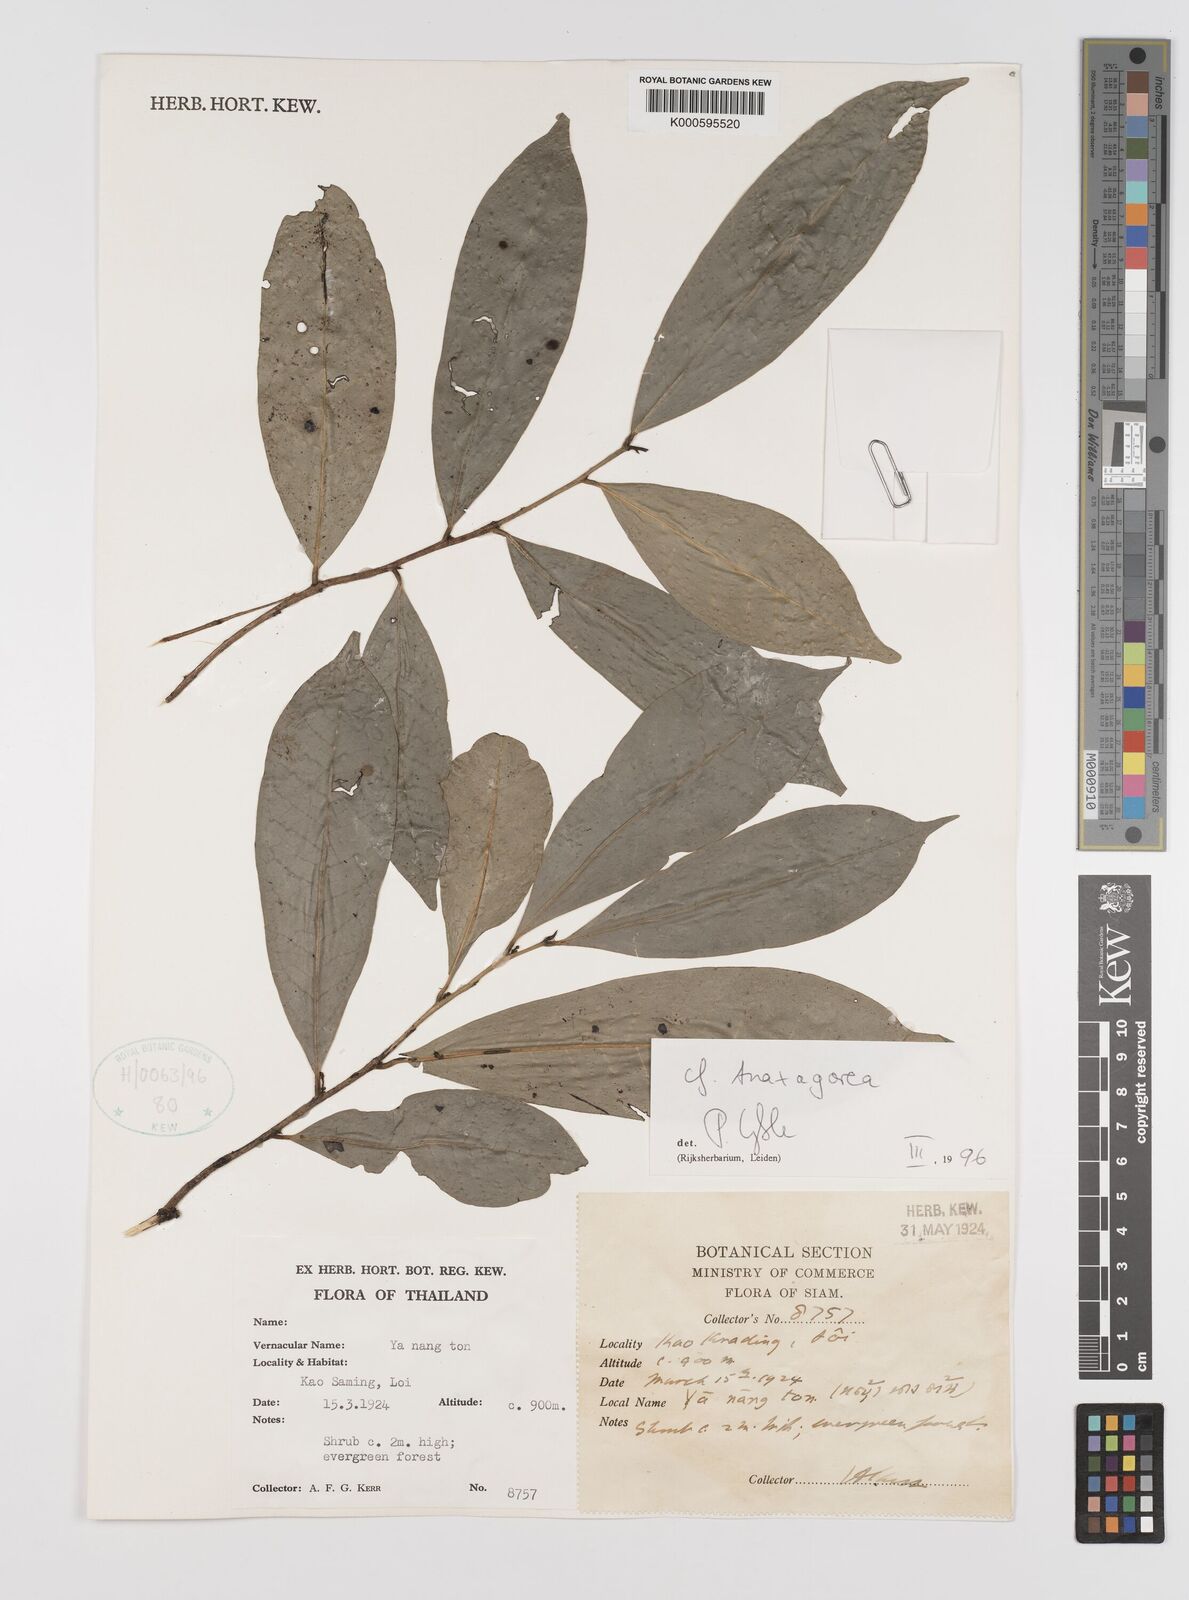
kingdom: Plantae
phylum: Tracheophyta
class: Magnoliopsida
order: Magnoliales
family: Annonaceae
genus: Anaxagorea
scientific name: Anaxagorea
